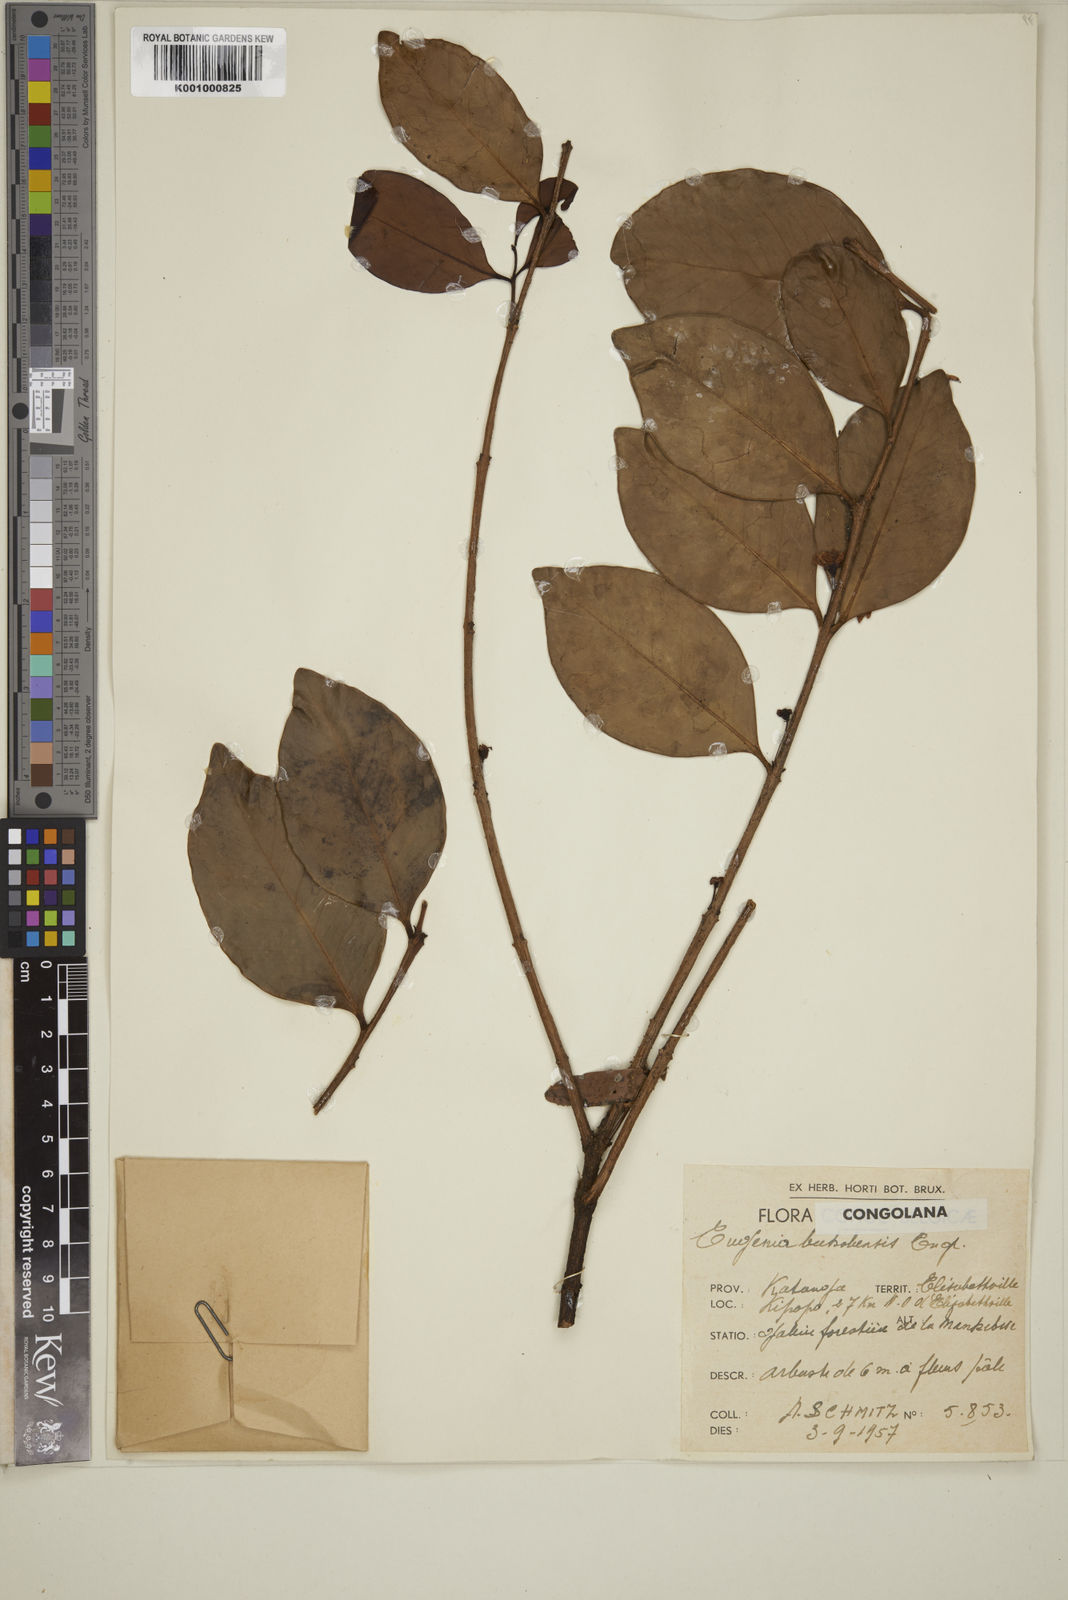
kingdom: Plantae
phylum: Tracheophyta
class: Magnoliopsida
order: Myrtales
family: Myrtaceae
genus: Eugenia
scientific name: Eugenia bukobensis
